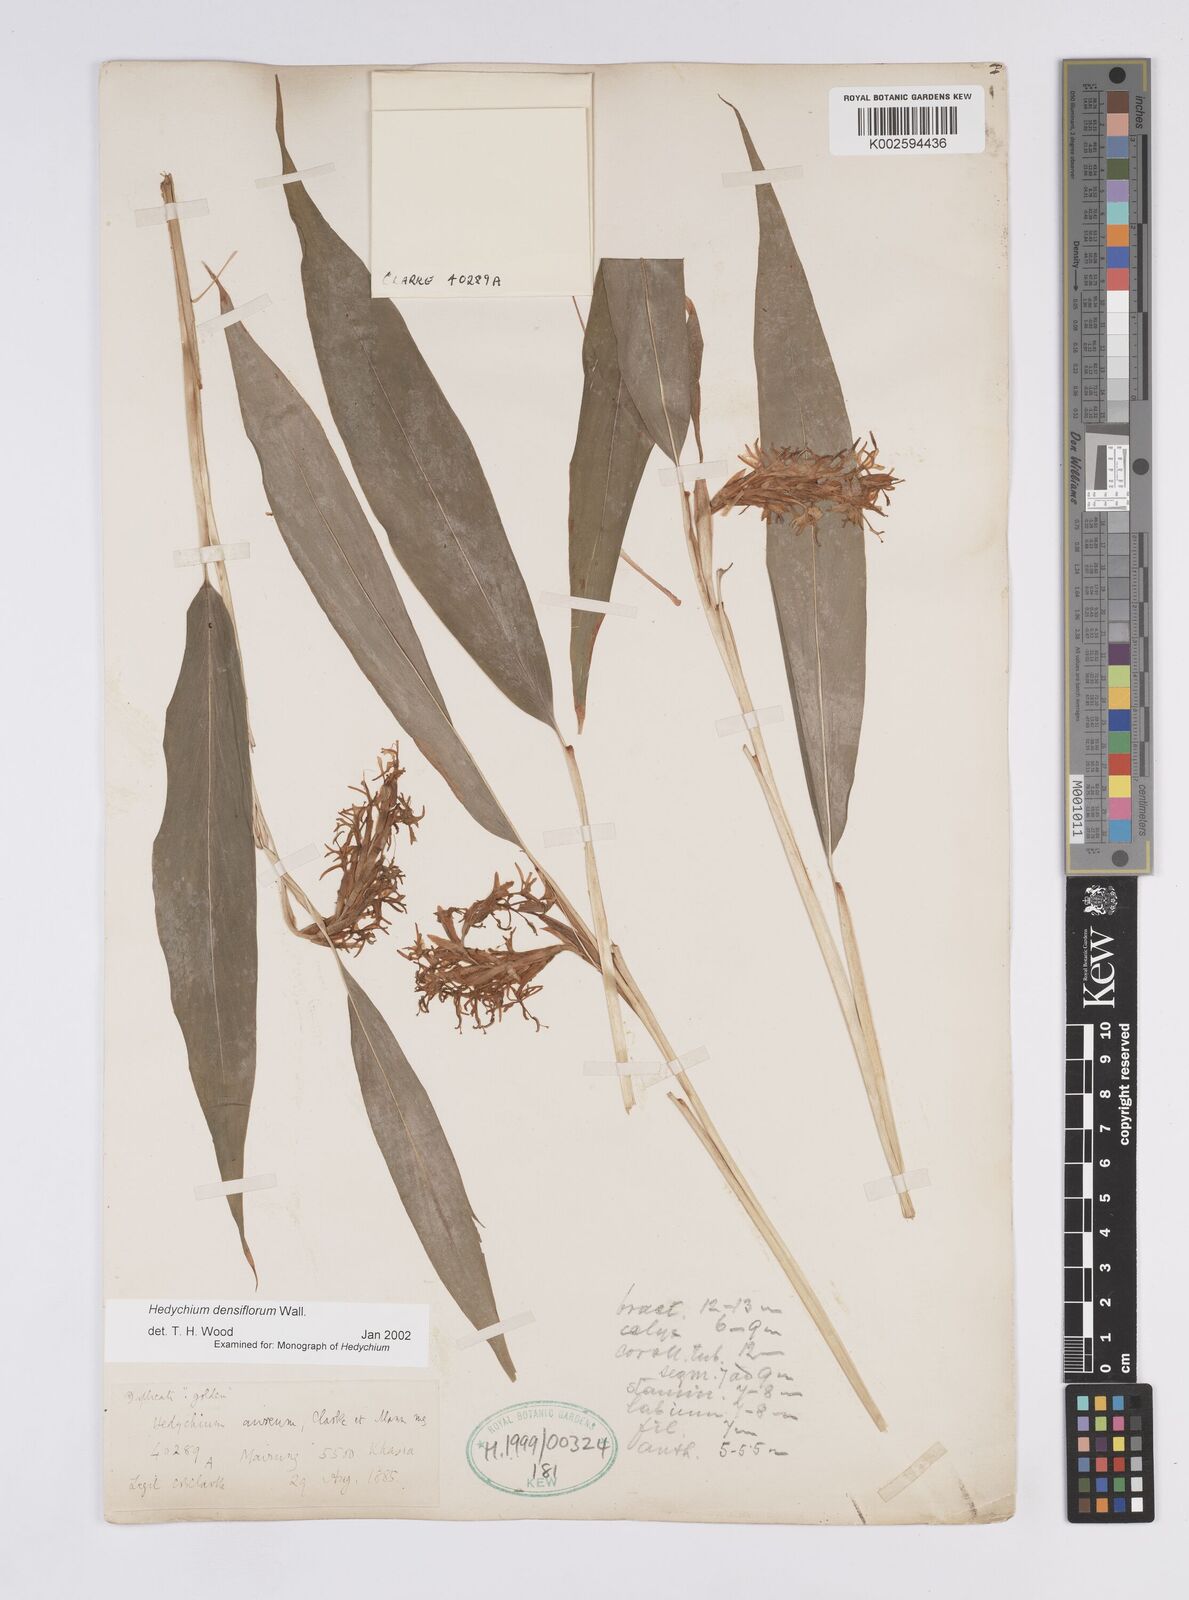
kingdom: Plantae
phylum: Tracheophyta
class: Liliopsida
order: Zingiberales
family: Zingiberaceae
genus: Hedychium
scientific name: Hedychium densiflorum
